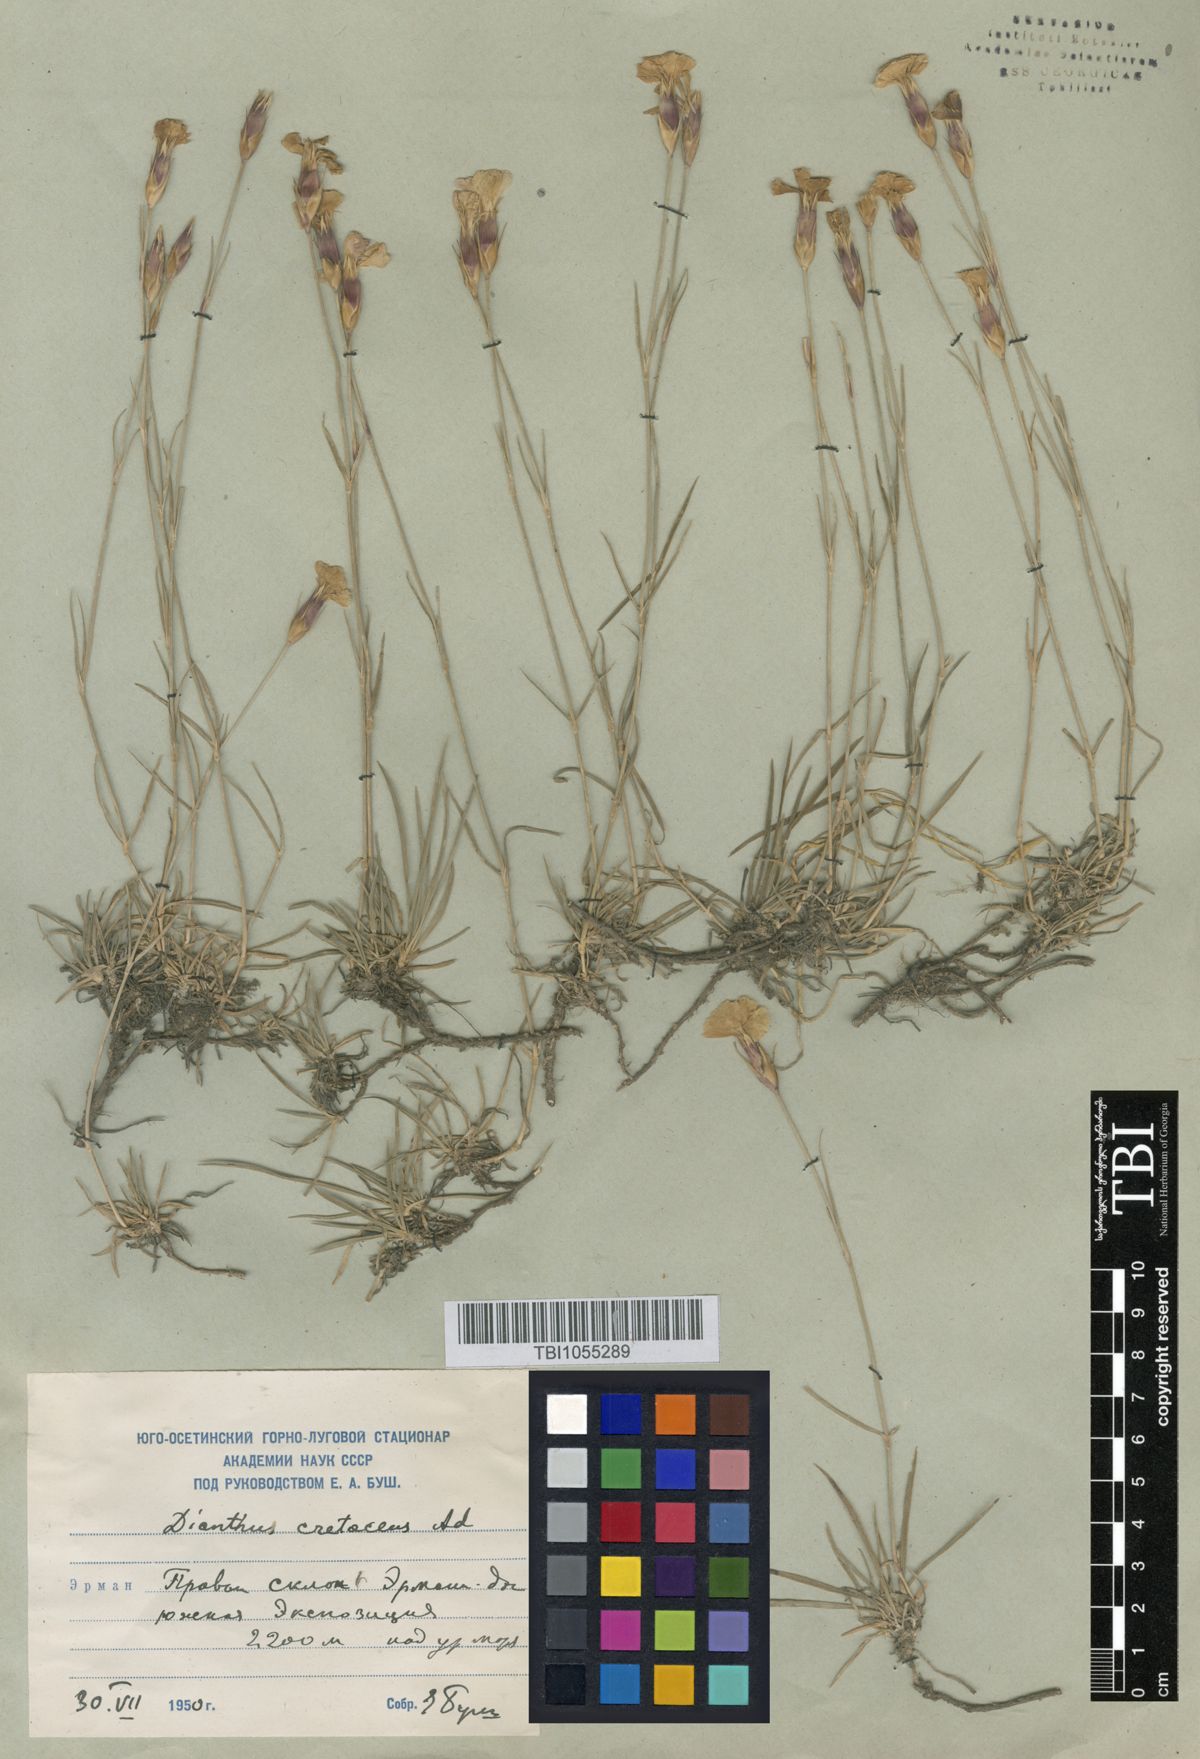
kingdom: Plantae
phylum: Tracheophyta
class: Magnoliopsida
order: Caryophyllales
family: Caryophyllaceae
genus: Dianthus
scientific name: Dianthus cretaceus
